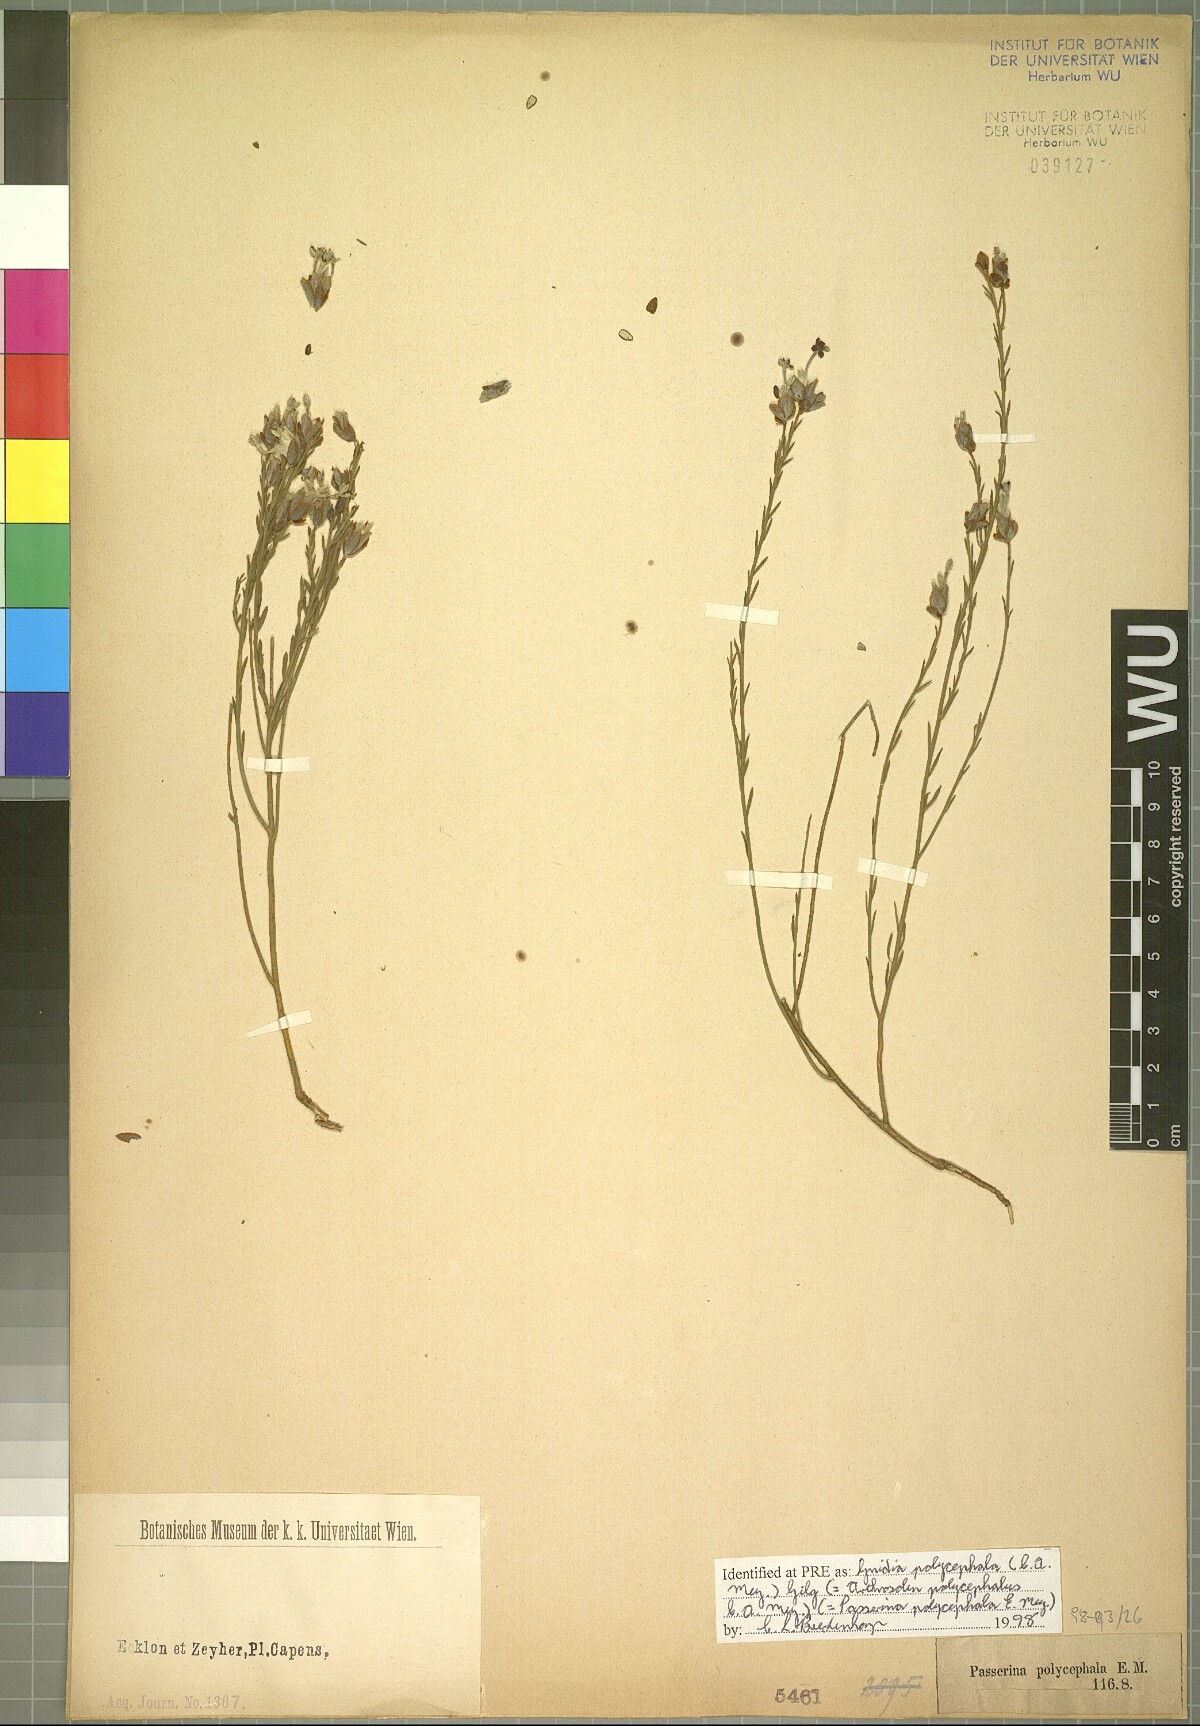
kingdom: Plantae
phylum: Tracheophyta
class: Magnoliopsida
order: Malvales
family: Thymelaeaceae
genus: Gnidia
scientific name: Gnidia polycephala
